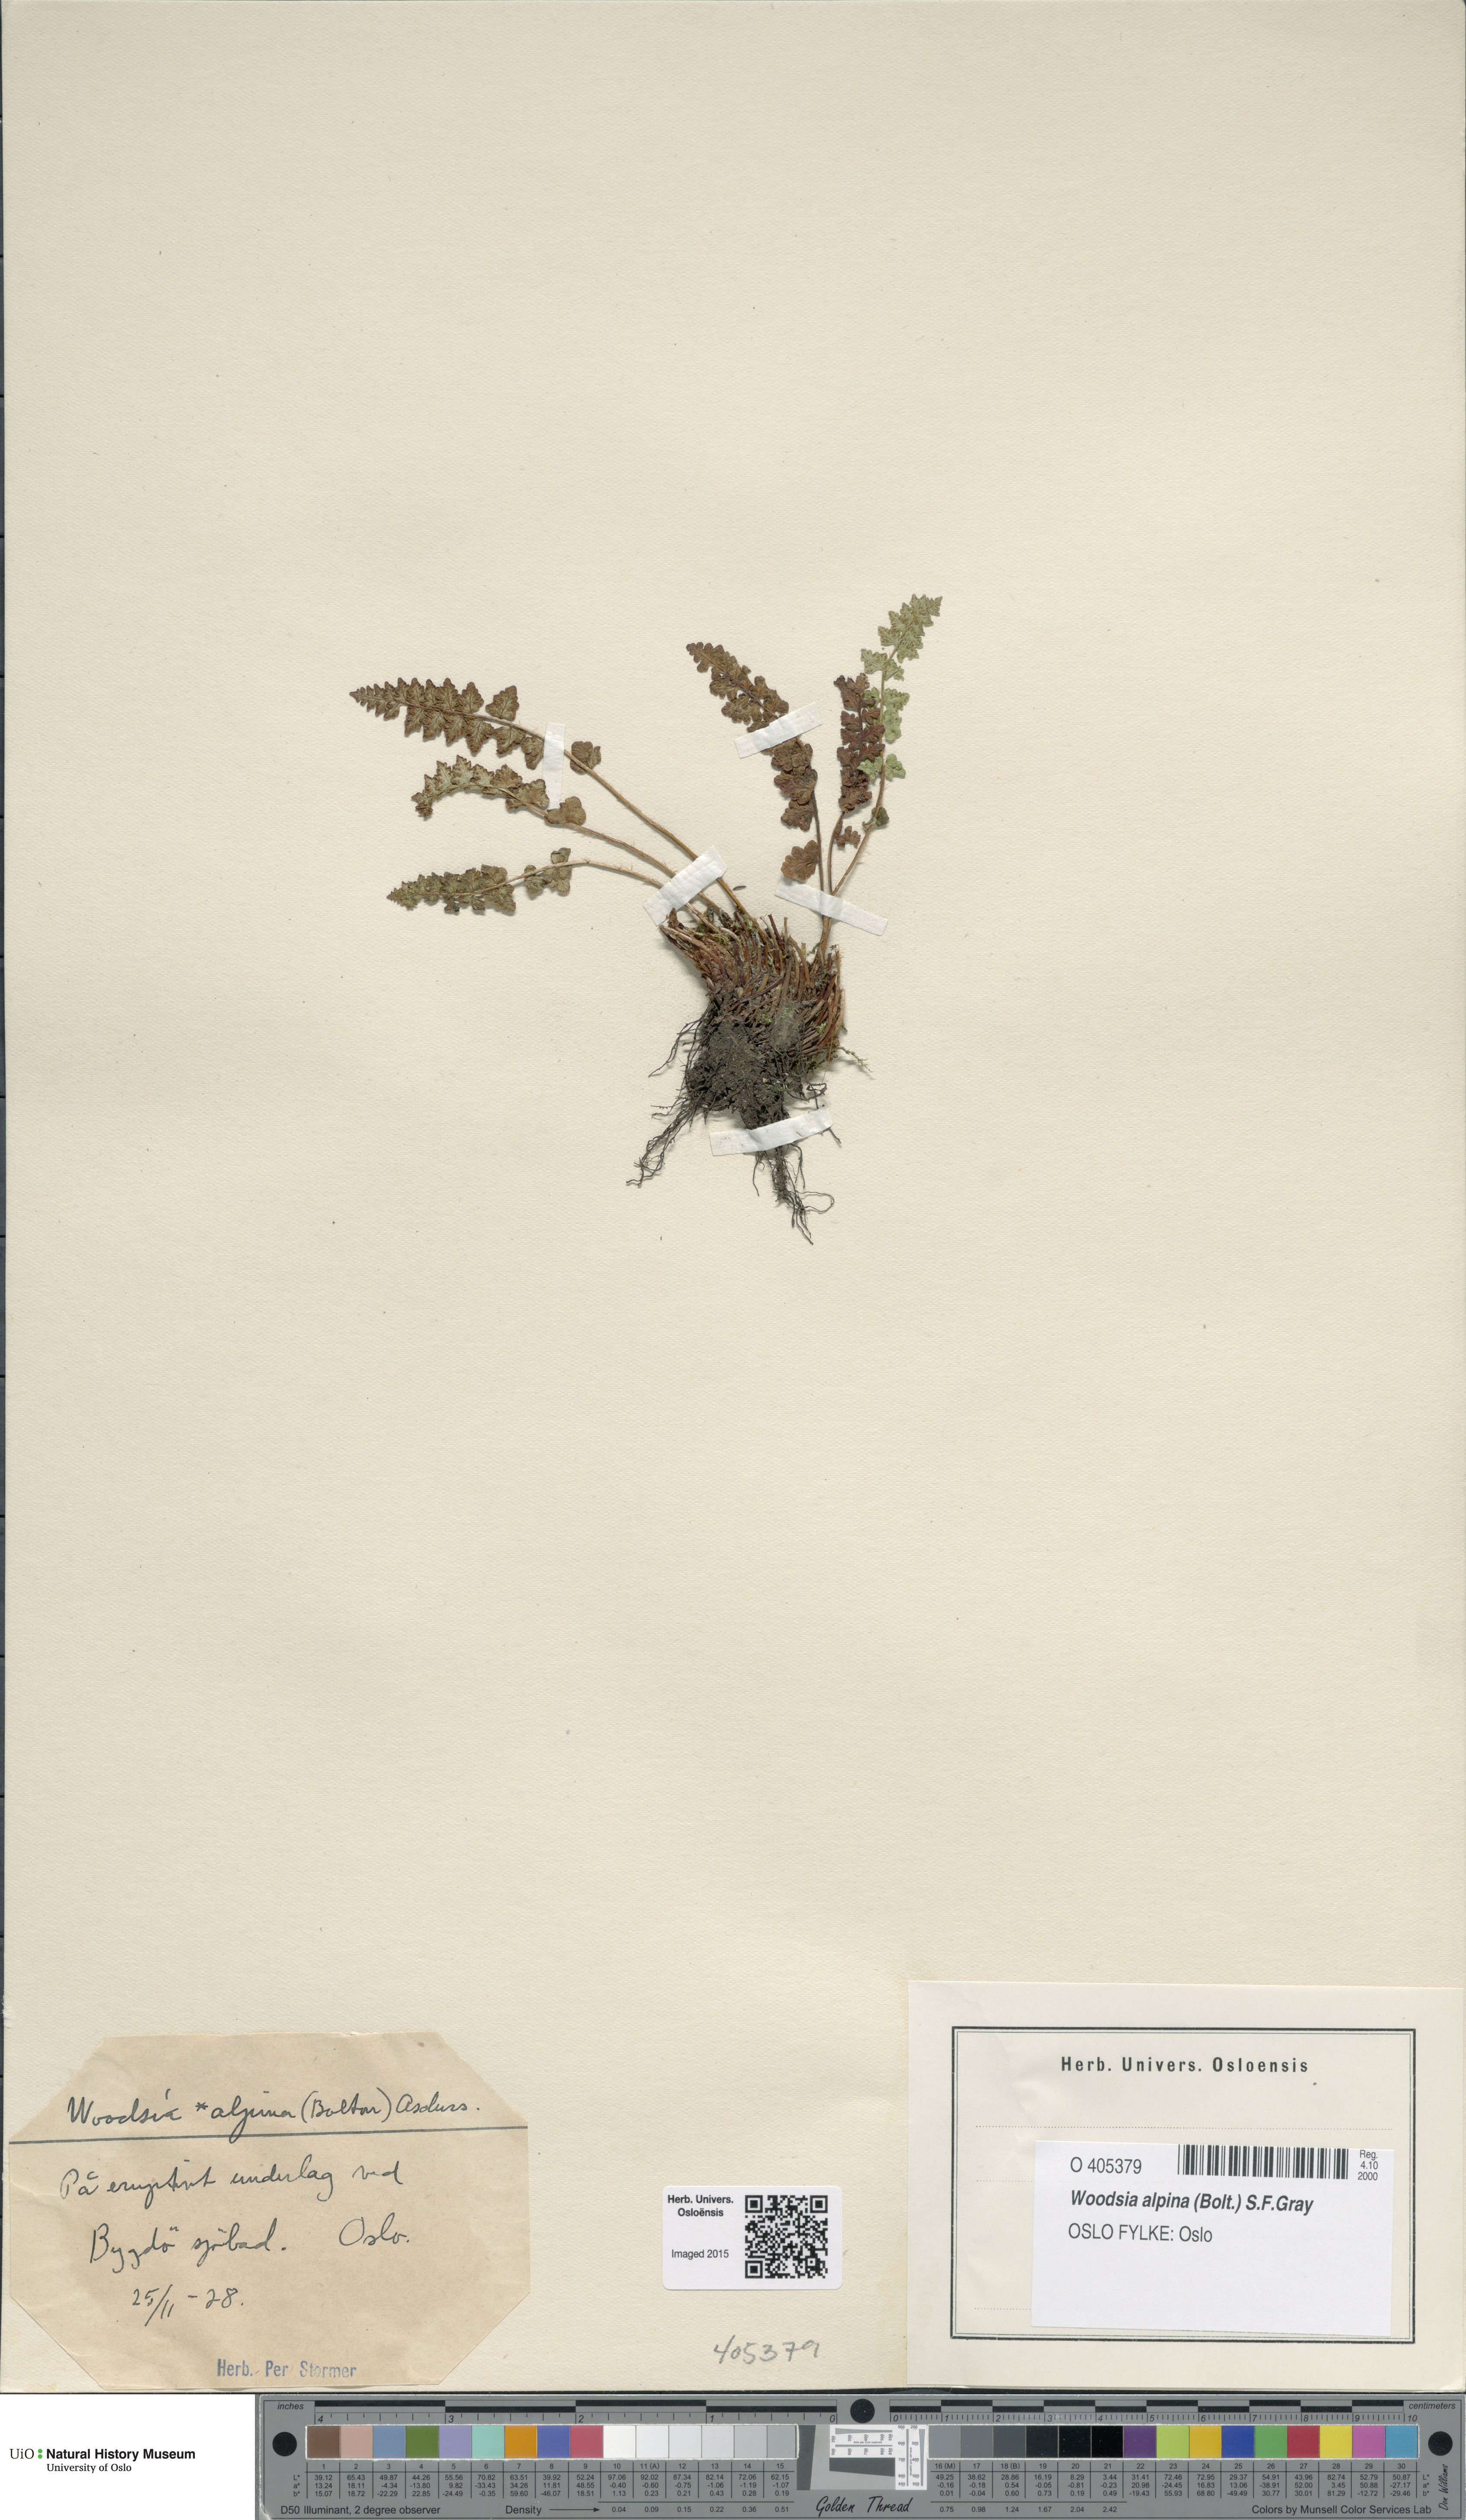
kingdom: Plantae
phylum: Tracheophyta
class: Polypodiopsida
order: Polypodiales
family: Woodsiaceae
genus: Woodsia
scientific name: Woodsia alpina
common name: Alpine woodsia
